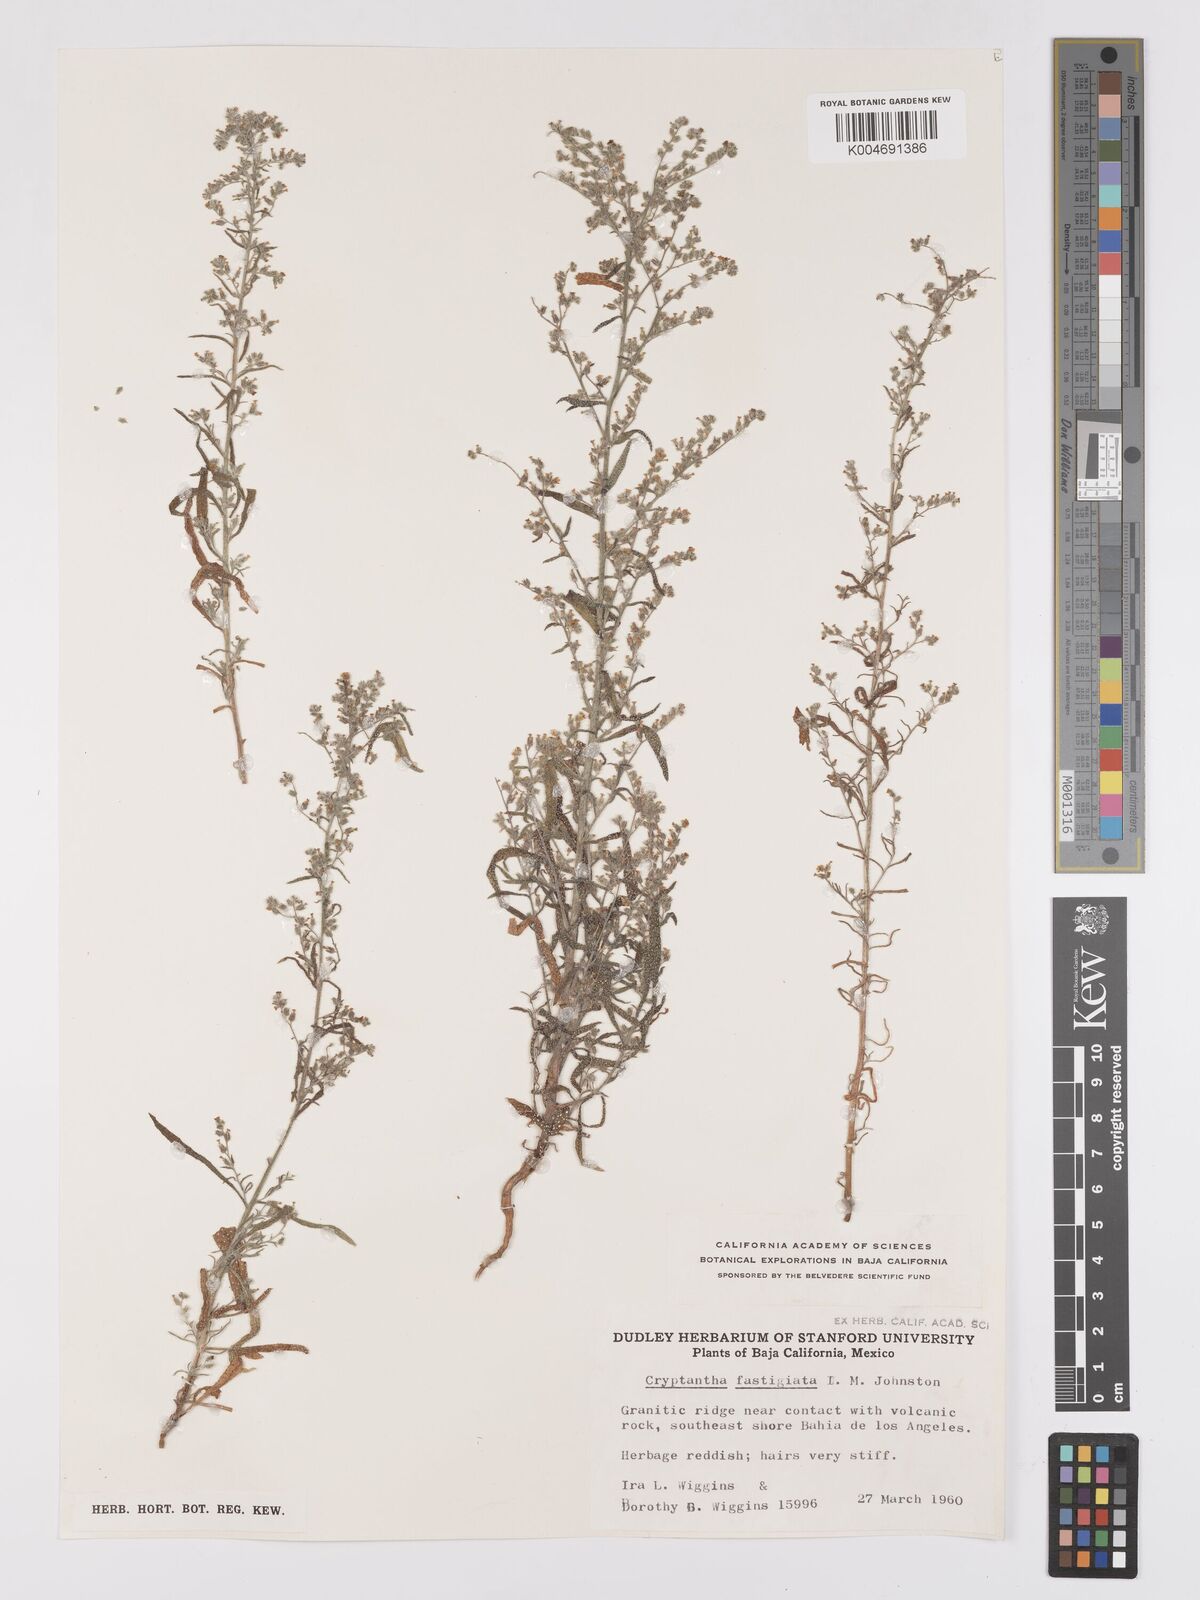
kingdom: Plantae
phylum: Tracheophyta
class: Magnoliopsida
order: Boraginales
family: Boraginaceae
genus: Johnstonella
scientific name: Johnstonella fastigiata
